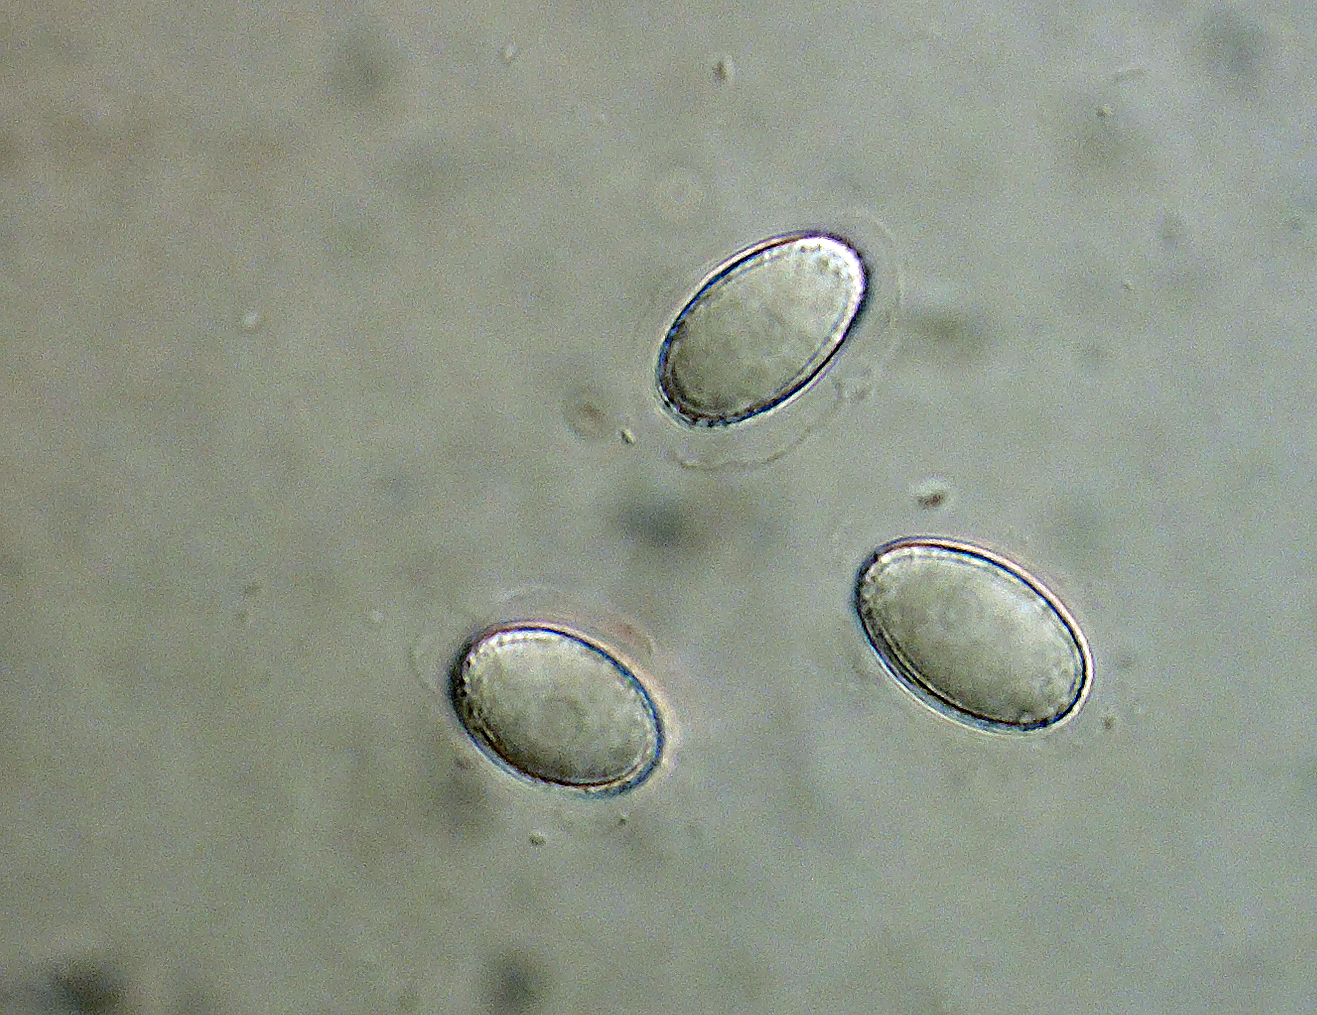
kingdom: Fungi
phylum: Ascomycota
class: Pezizomycetes
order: Pezizales
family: Pezizaceae
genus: Iodophanus
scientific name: Iodophanus
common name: prikbæger
